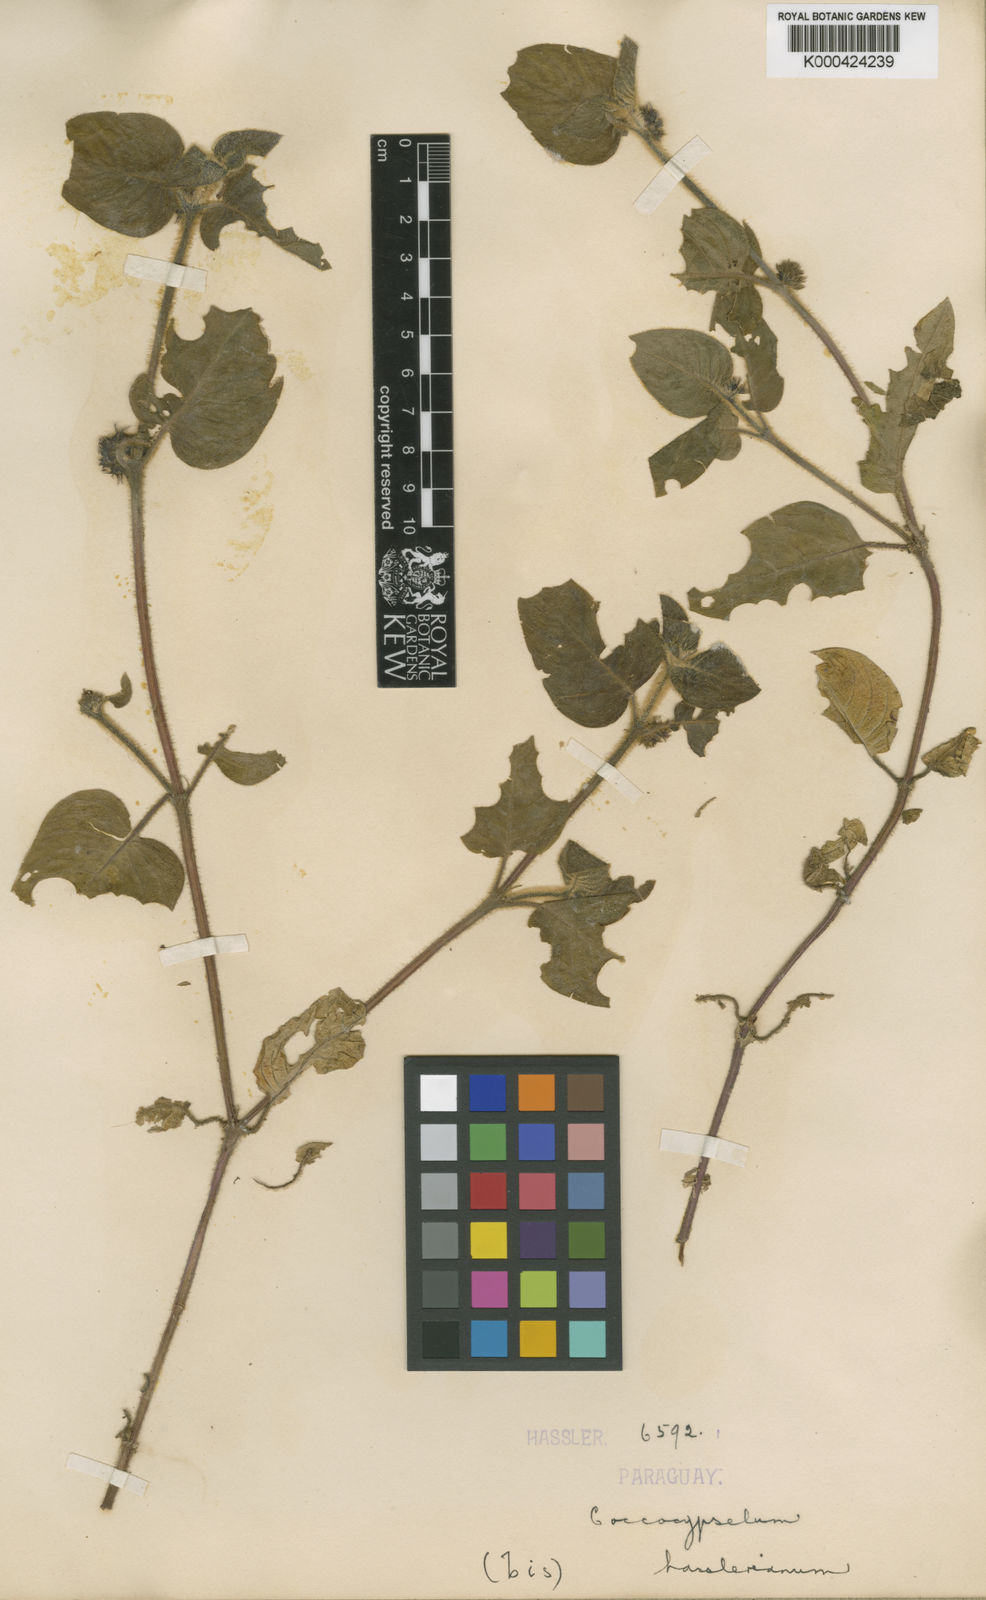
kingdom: Plantae
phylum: Tracheophyta
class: Magnoliopsida
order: Gentianales
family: Rubiaceae
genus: Coccocypselum
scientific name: Coccocypselum hasslerianum
